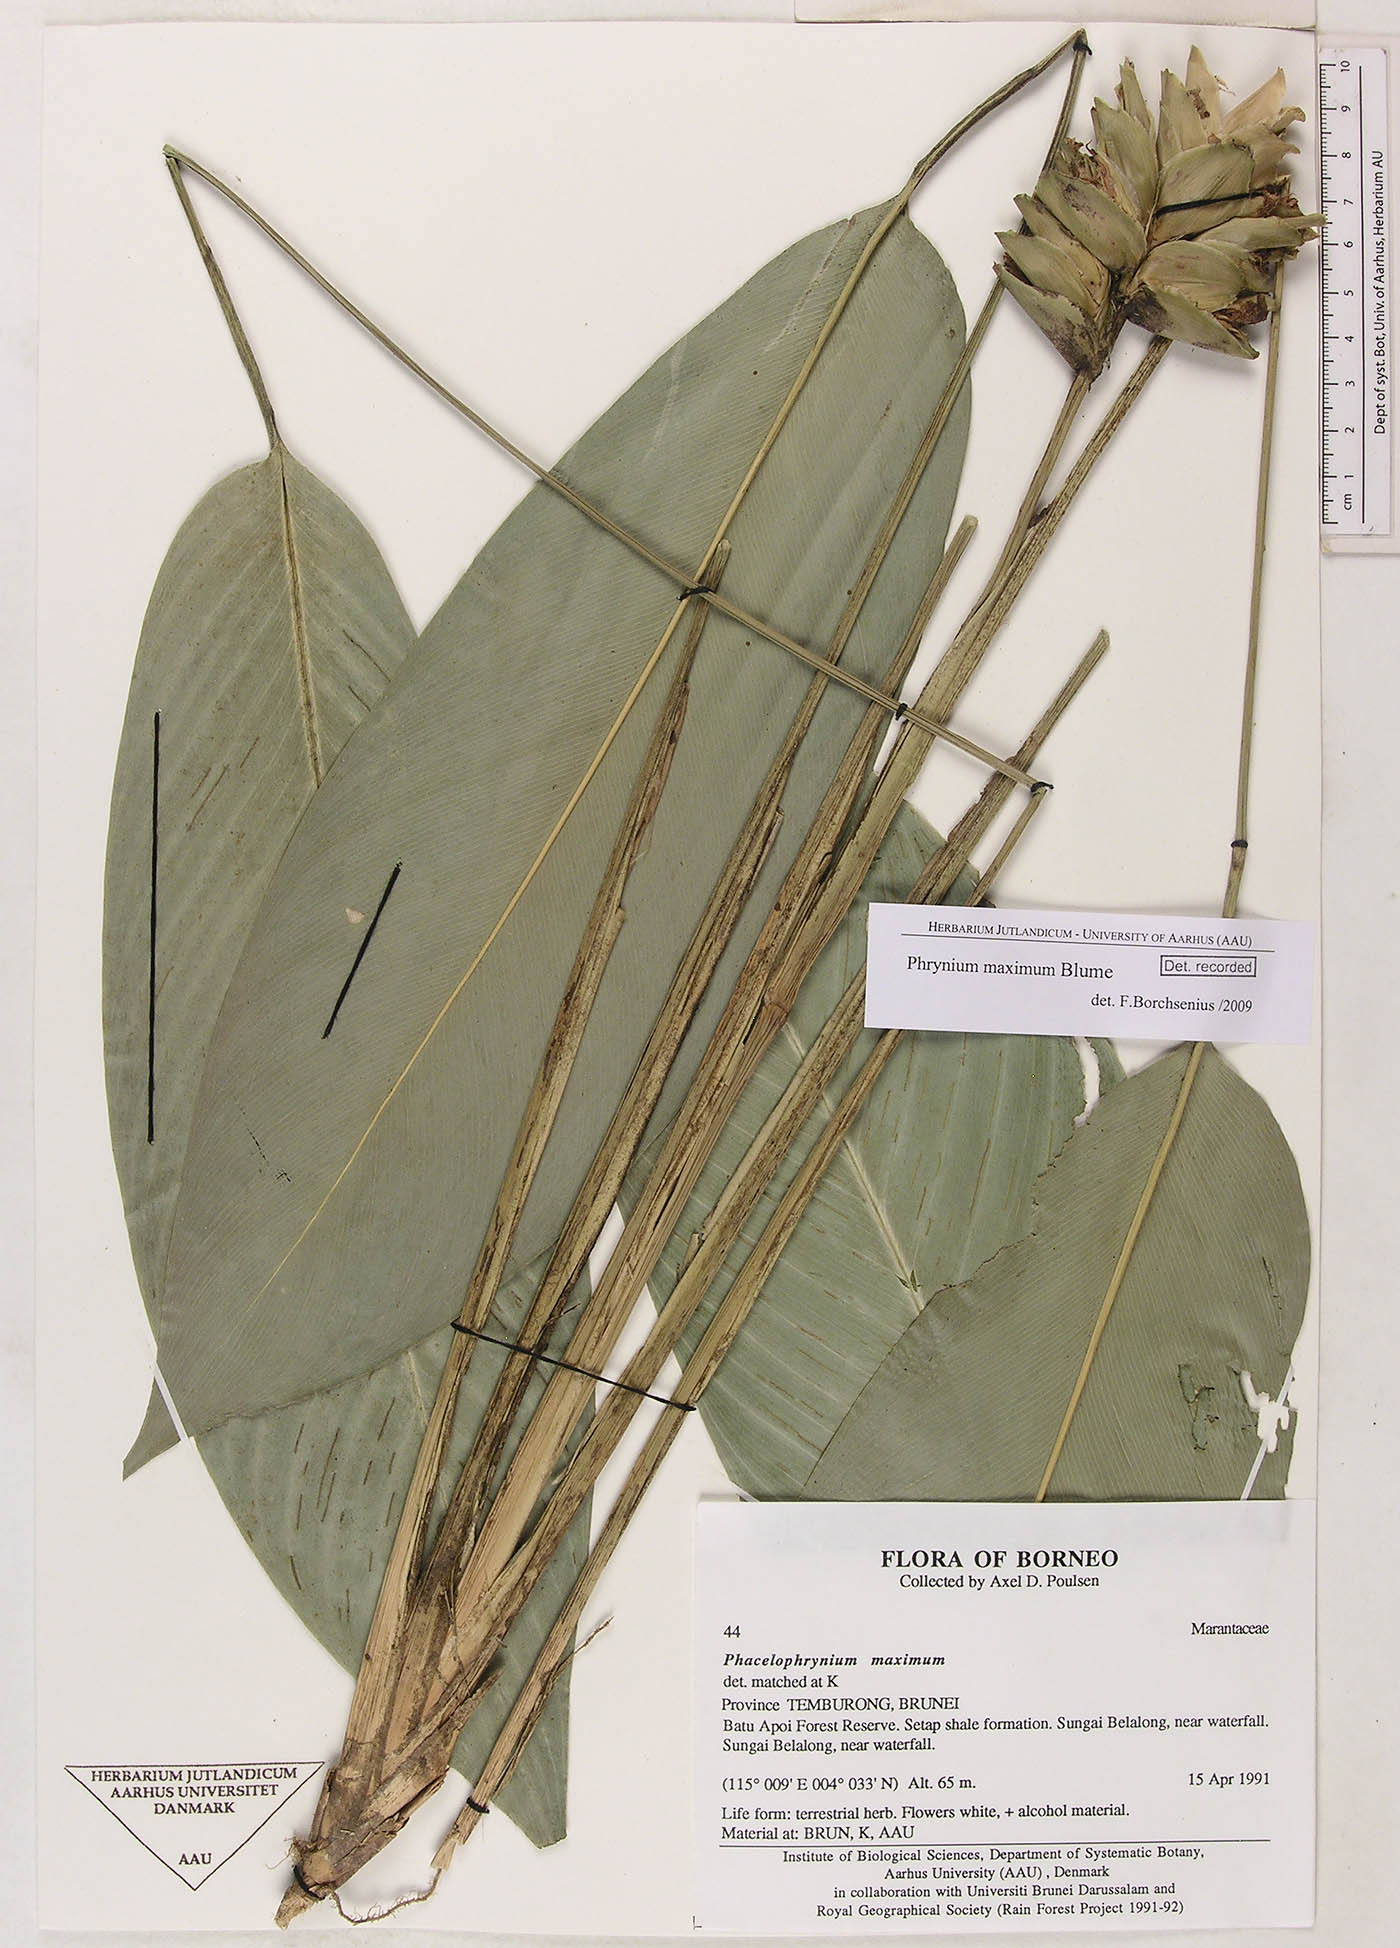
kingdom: Plantae
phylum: Tracheophyta
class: Liliopsida
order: Zingiberales
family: Marantaceae
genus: Phrynium
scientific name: Phrynium maximum
